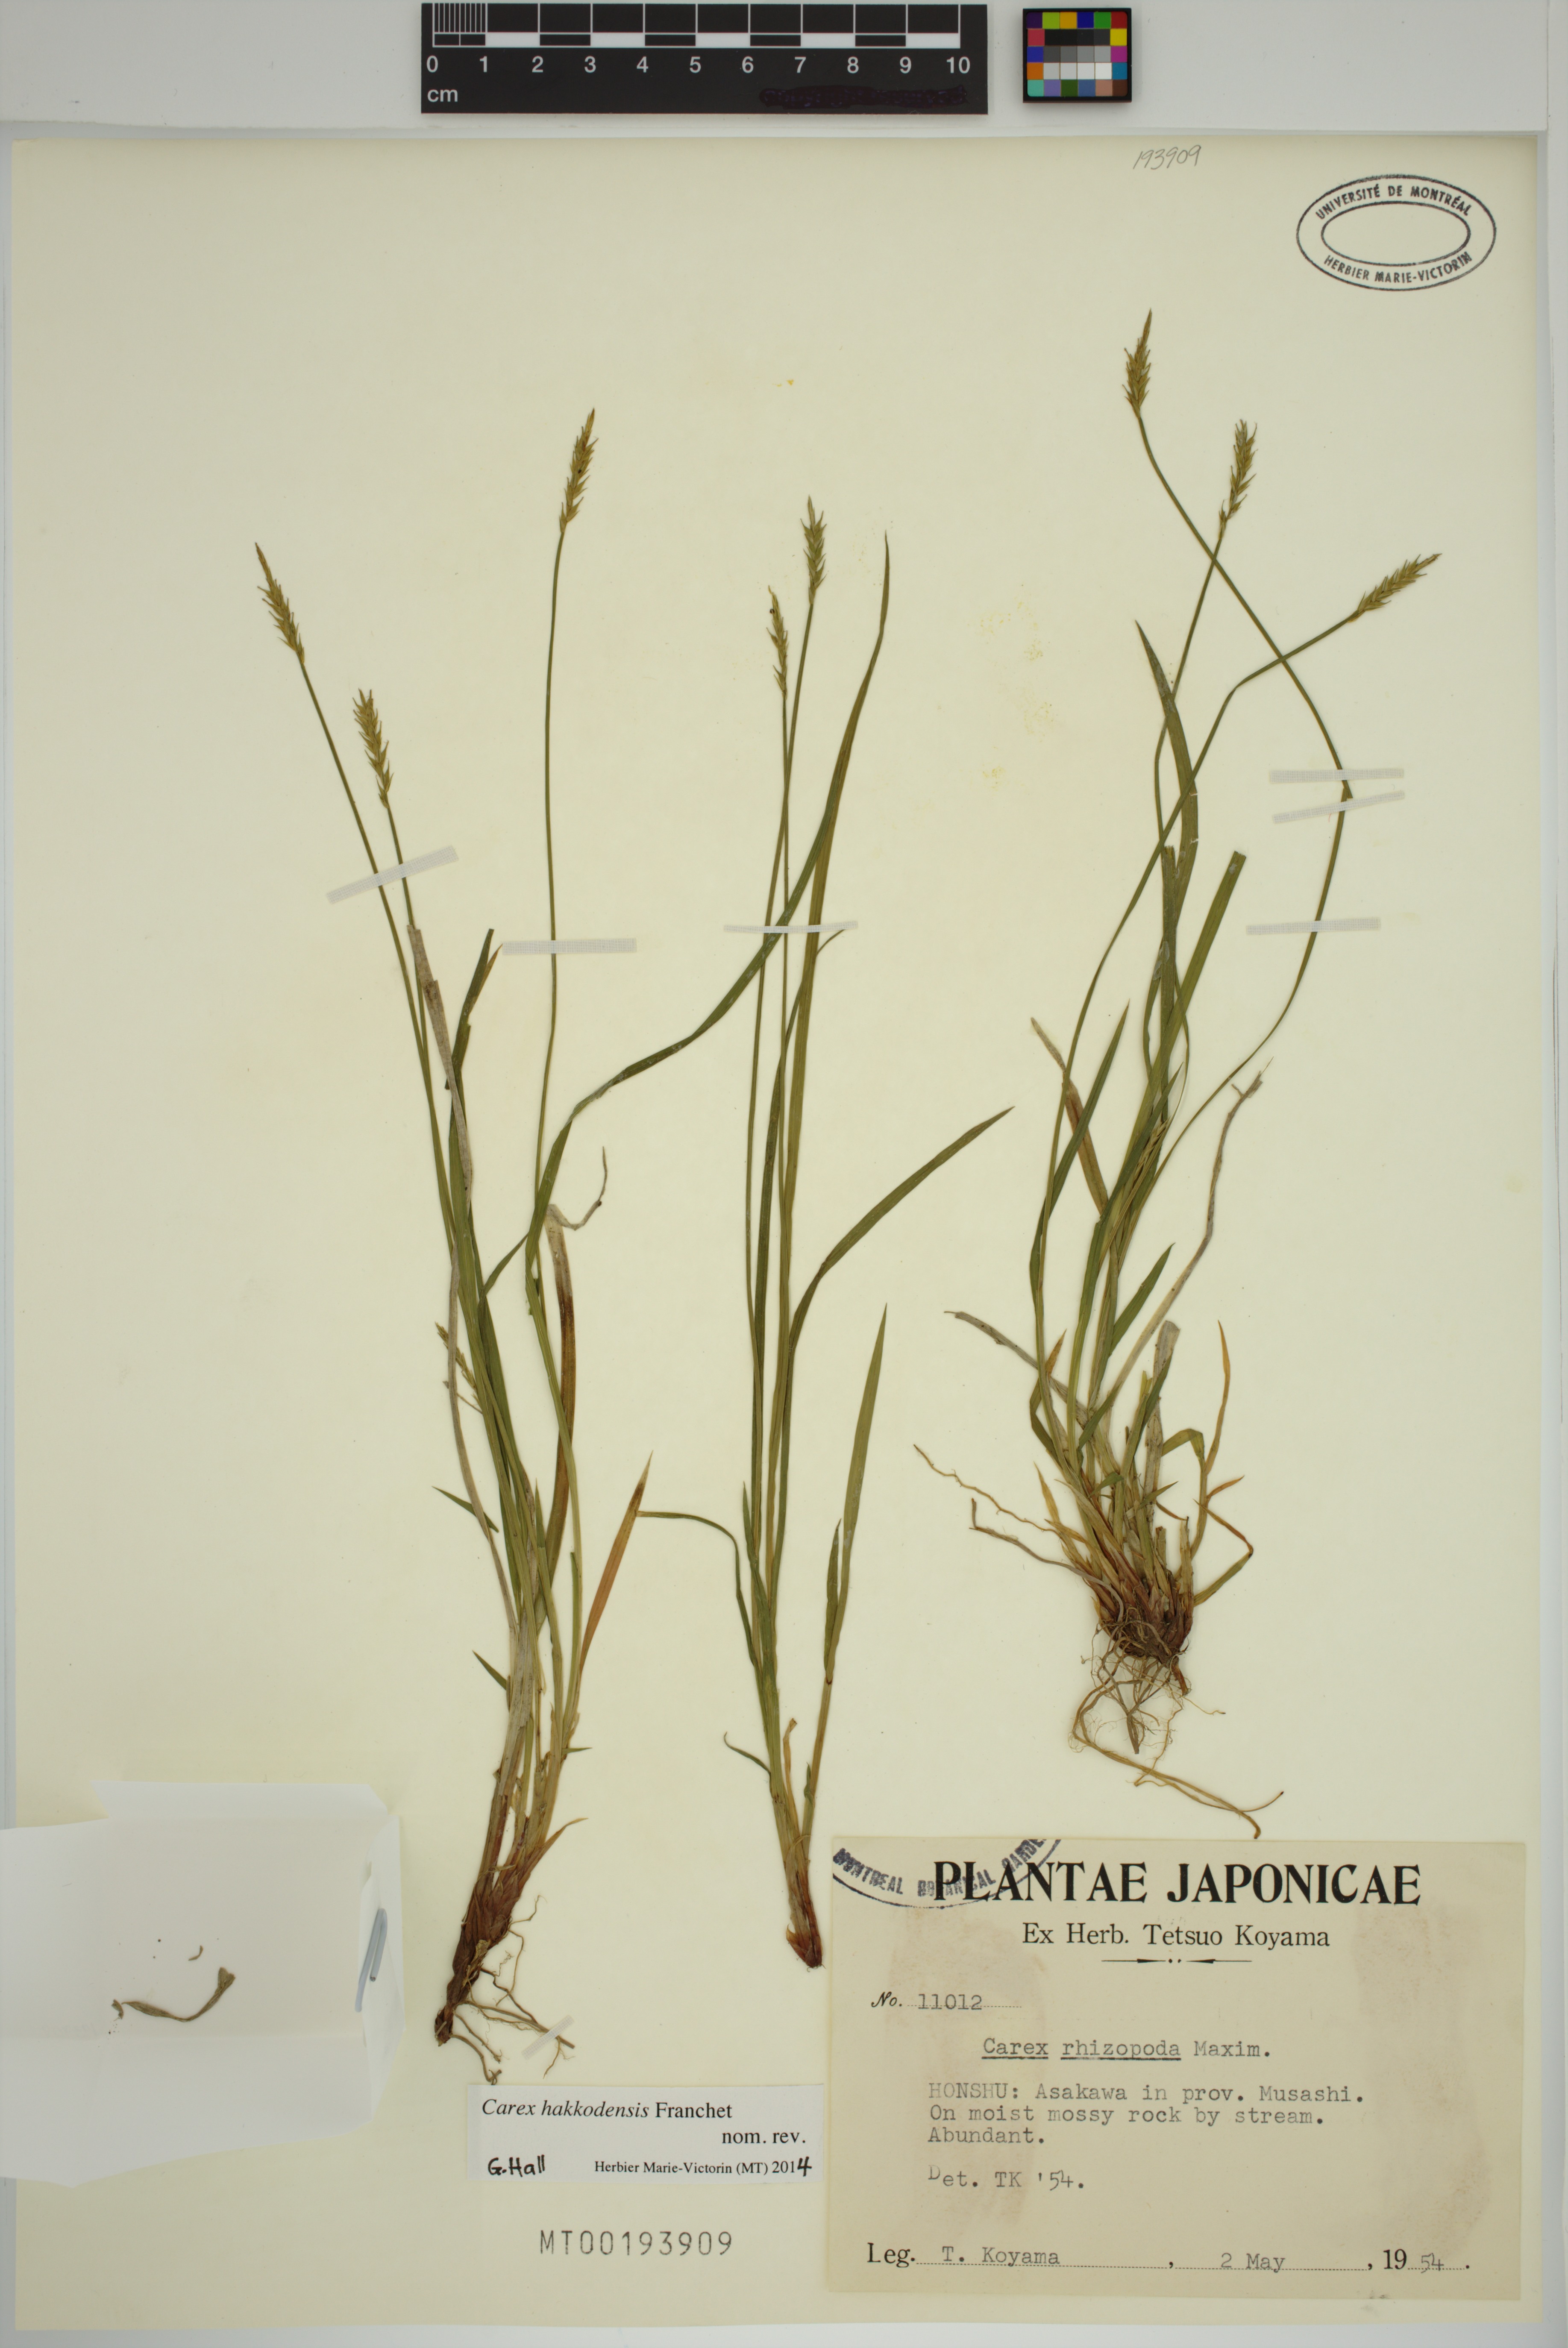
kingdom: Plantae
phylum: Tracheophyta
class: Liliopsida
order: Poales
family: Cyperaceae
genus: Carex
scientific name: Carex rhizopoda
